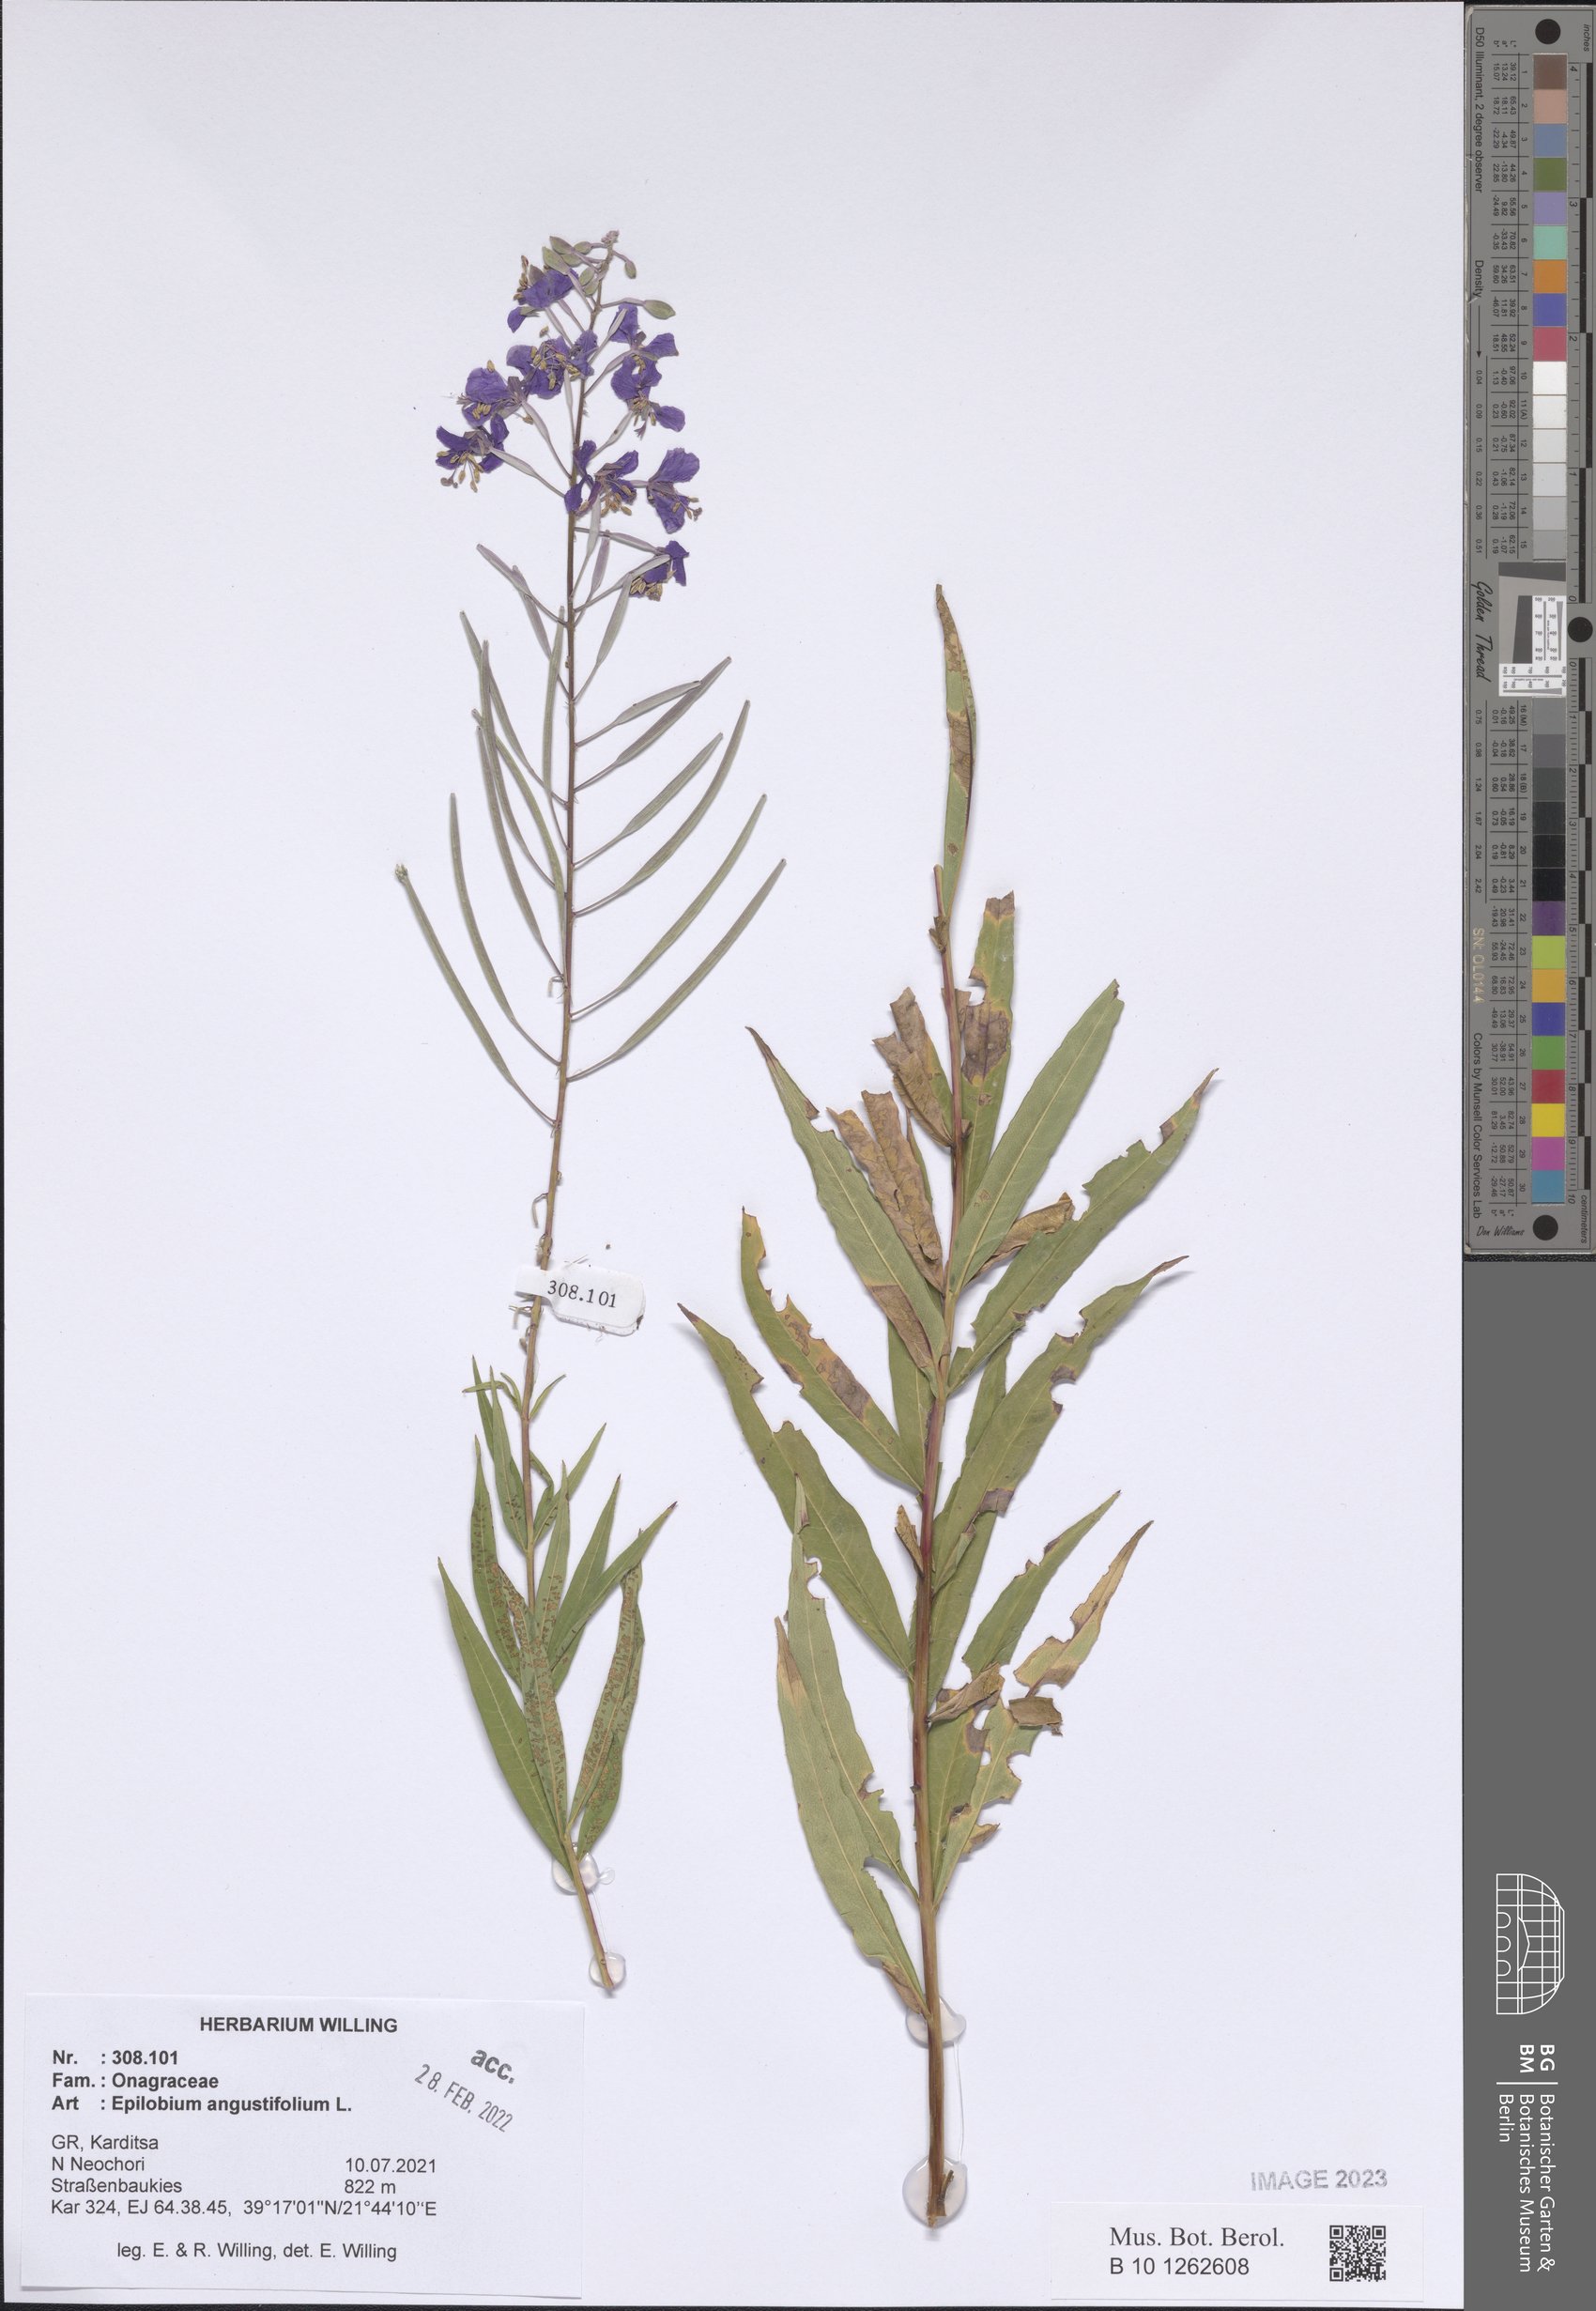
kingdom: Plantae
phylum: Tracheophyta
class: Magnoliopsida
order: Myrtales
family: Onagraceae
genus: Chamaenerion
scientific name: Chamaenerion angustifolium
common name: Fireweed
